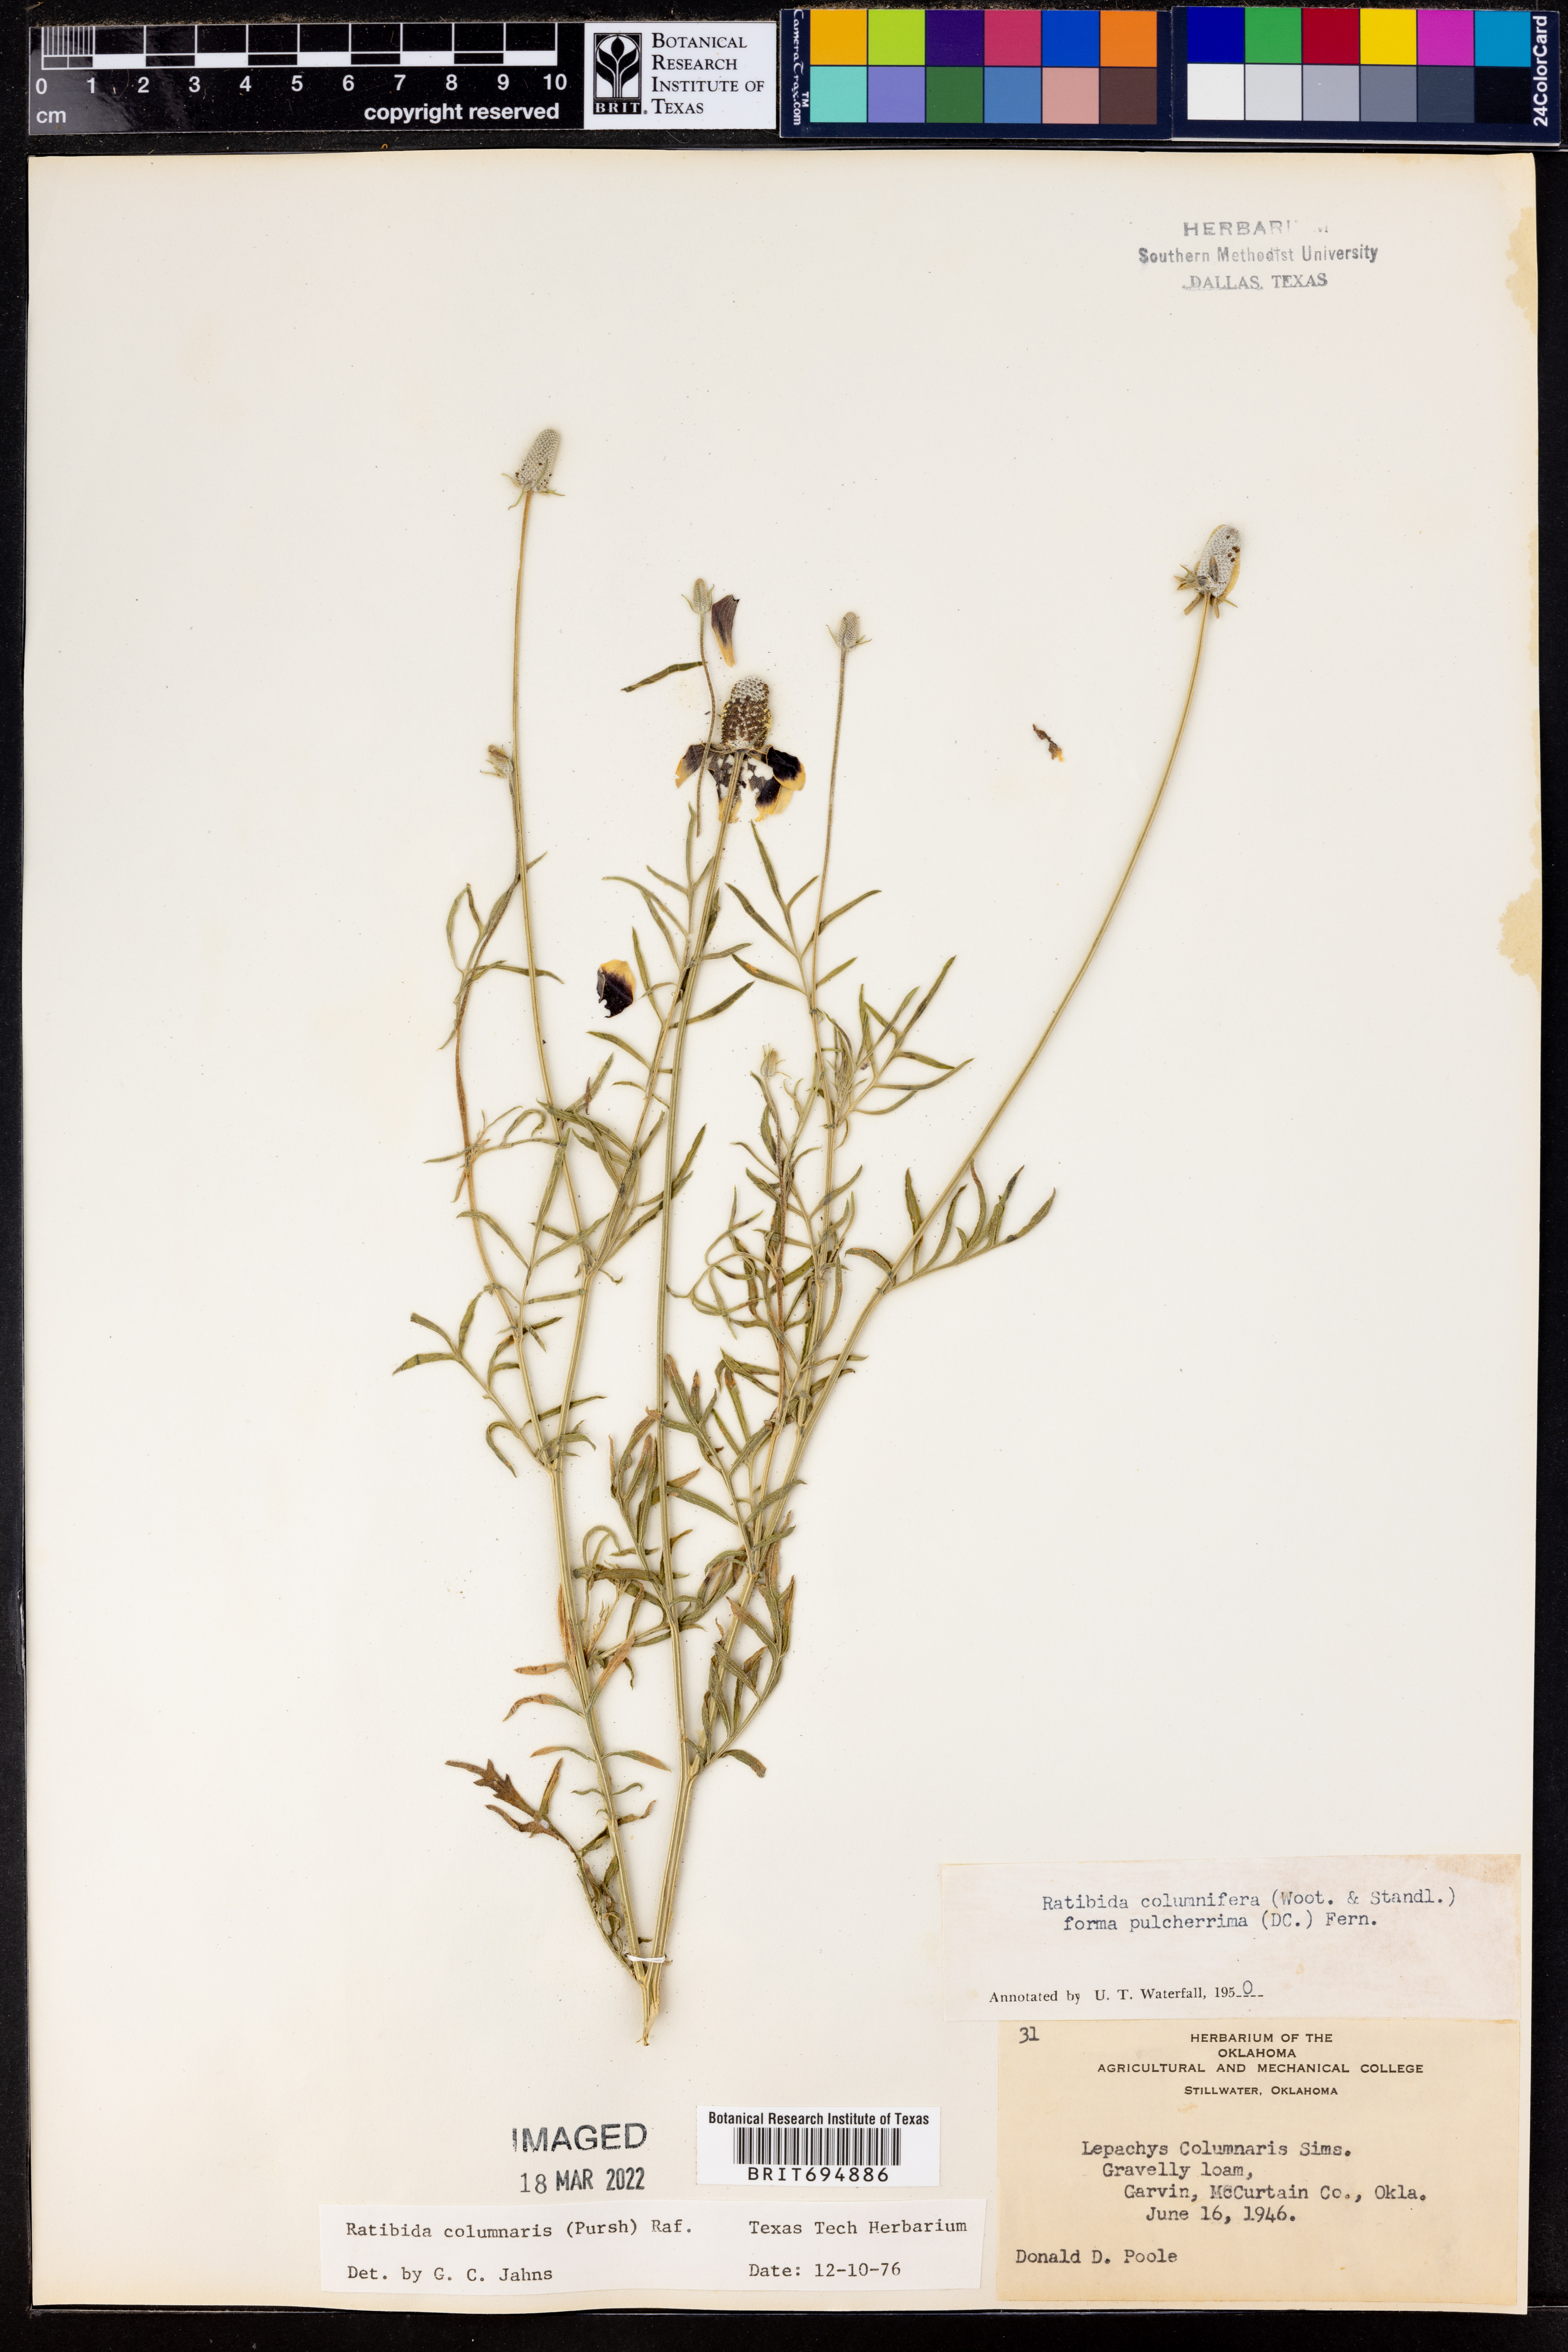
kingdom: Plantae
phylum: Tracheophyta
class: Magnoliopsida
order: Asterales
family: Asteraceae
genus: Ratibida
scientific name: Ratibida columnifera
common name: Prairie coneflower
